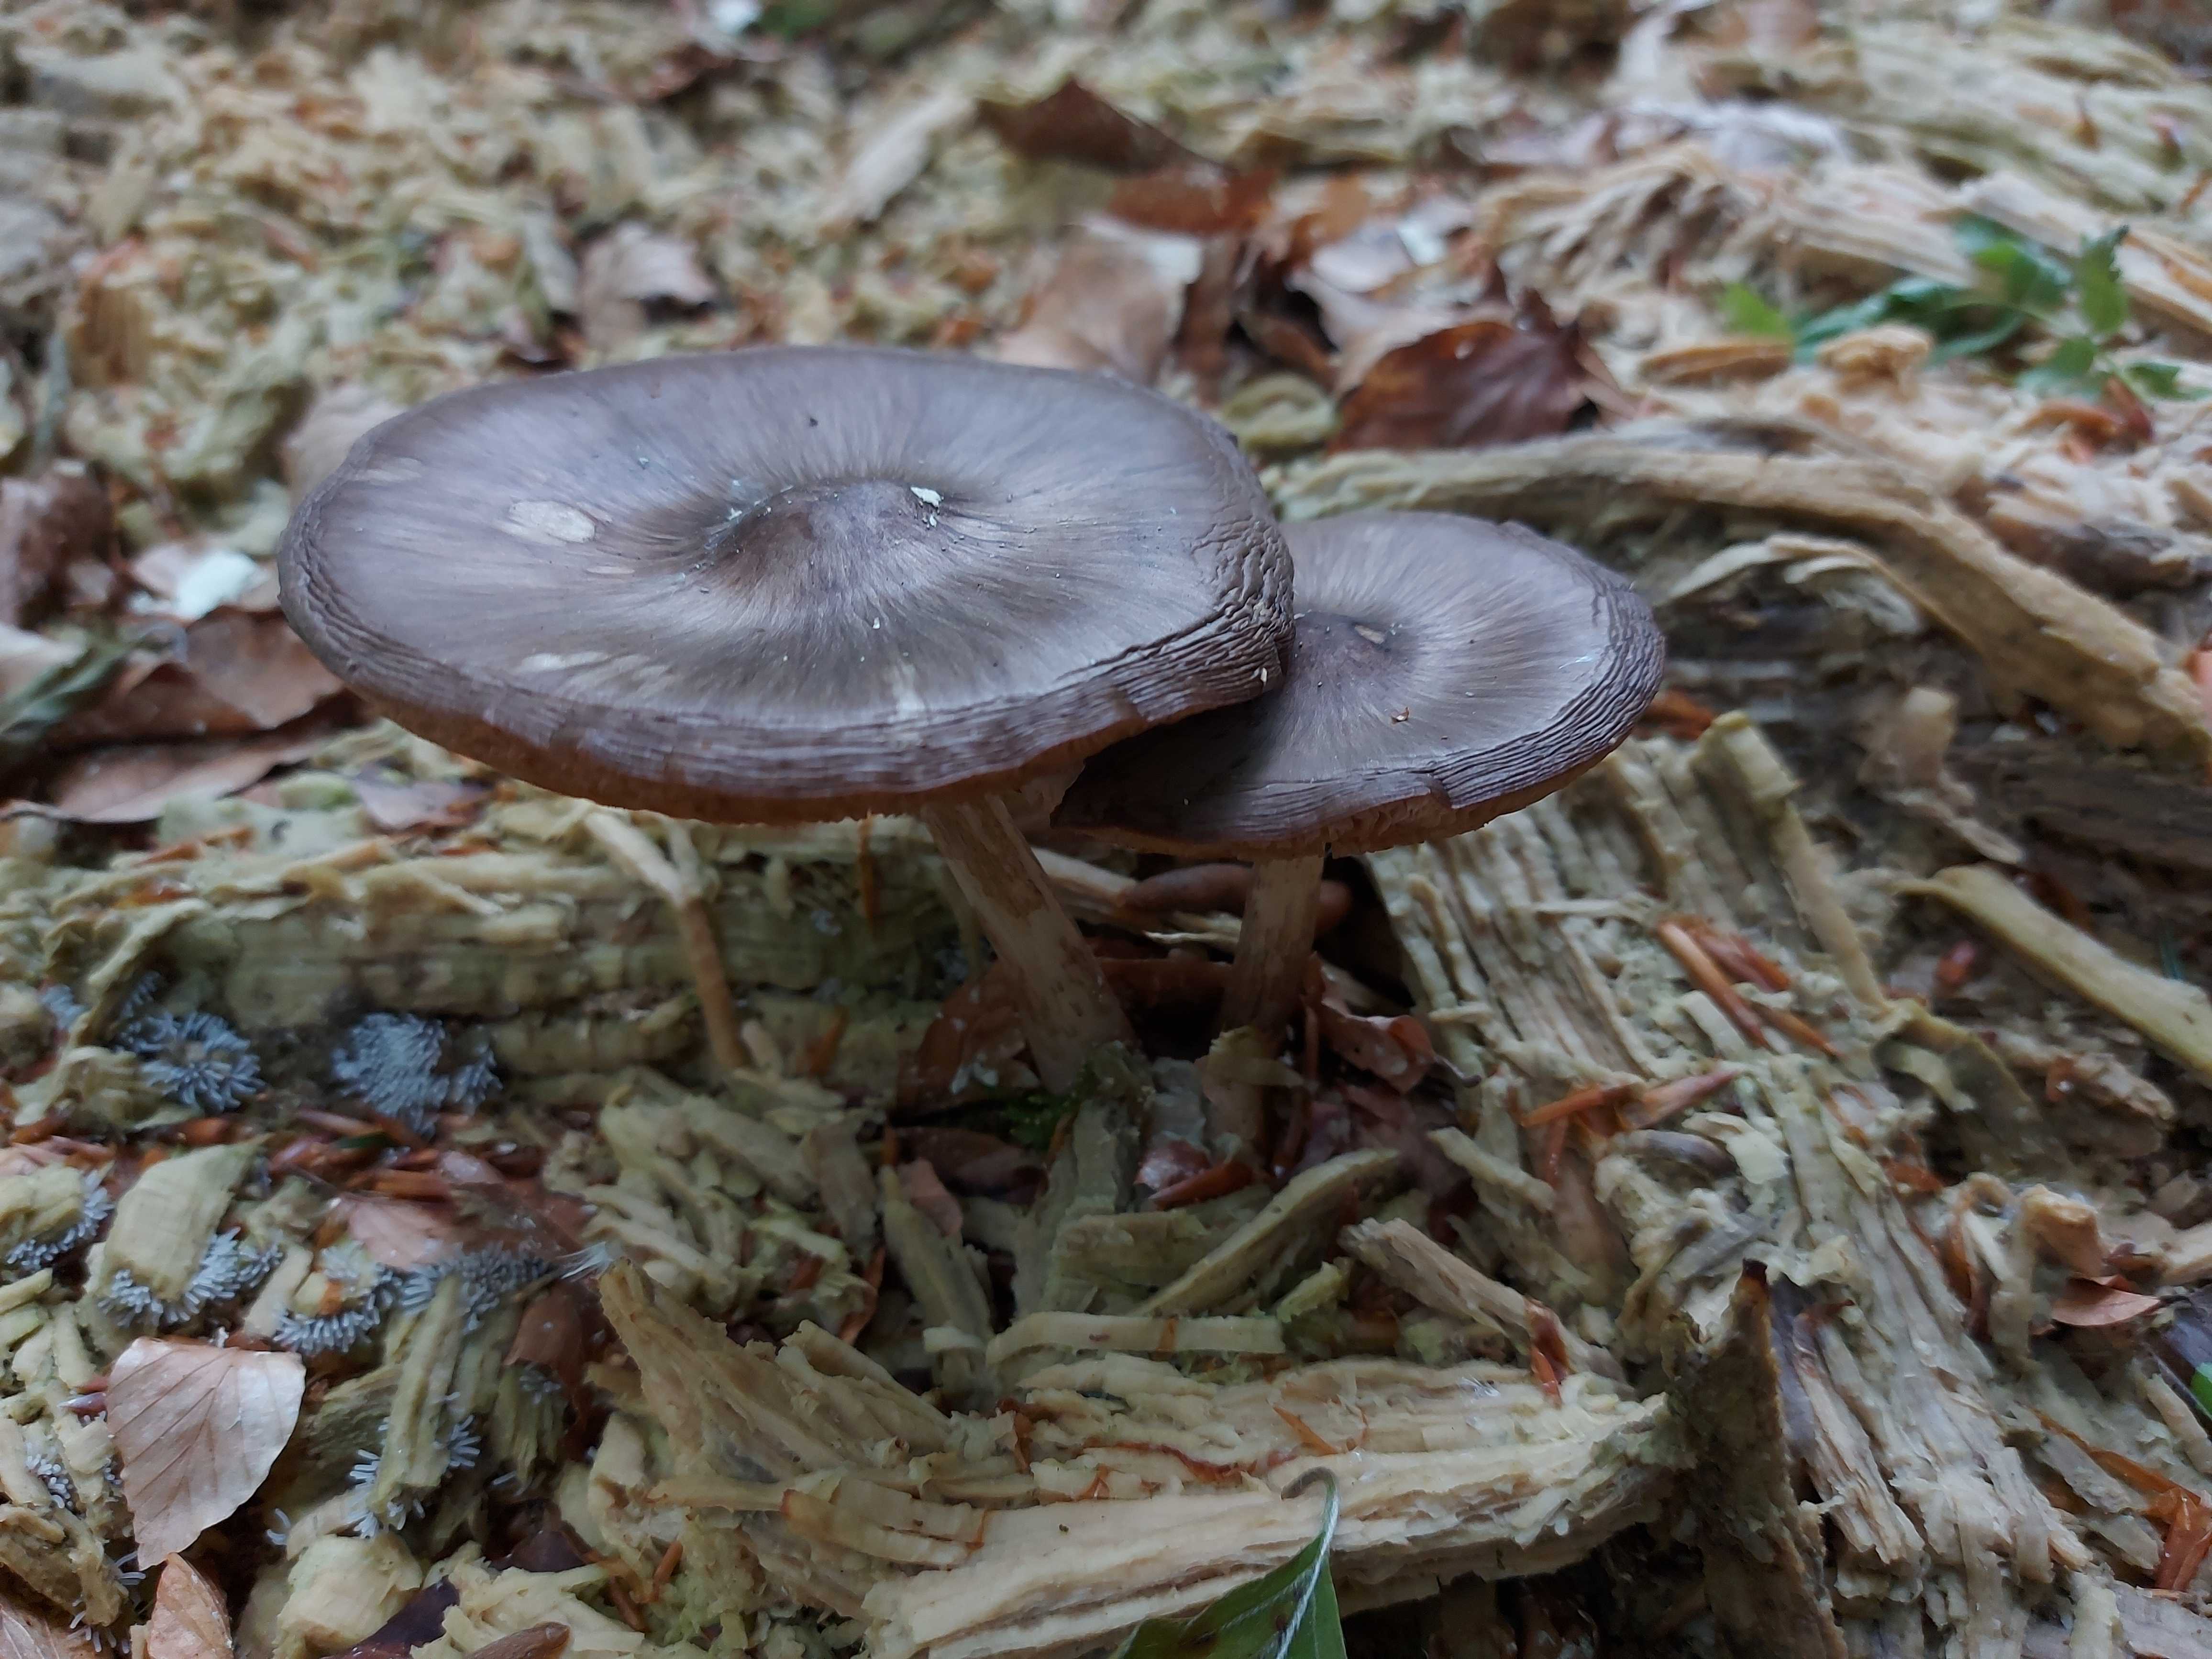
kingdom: Fungi
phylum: Basidiomycota
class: Agaricomycetes
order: Agaricales
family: Pluteaceae
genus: Pluteus
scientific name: Pluteus
